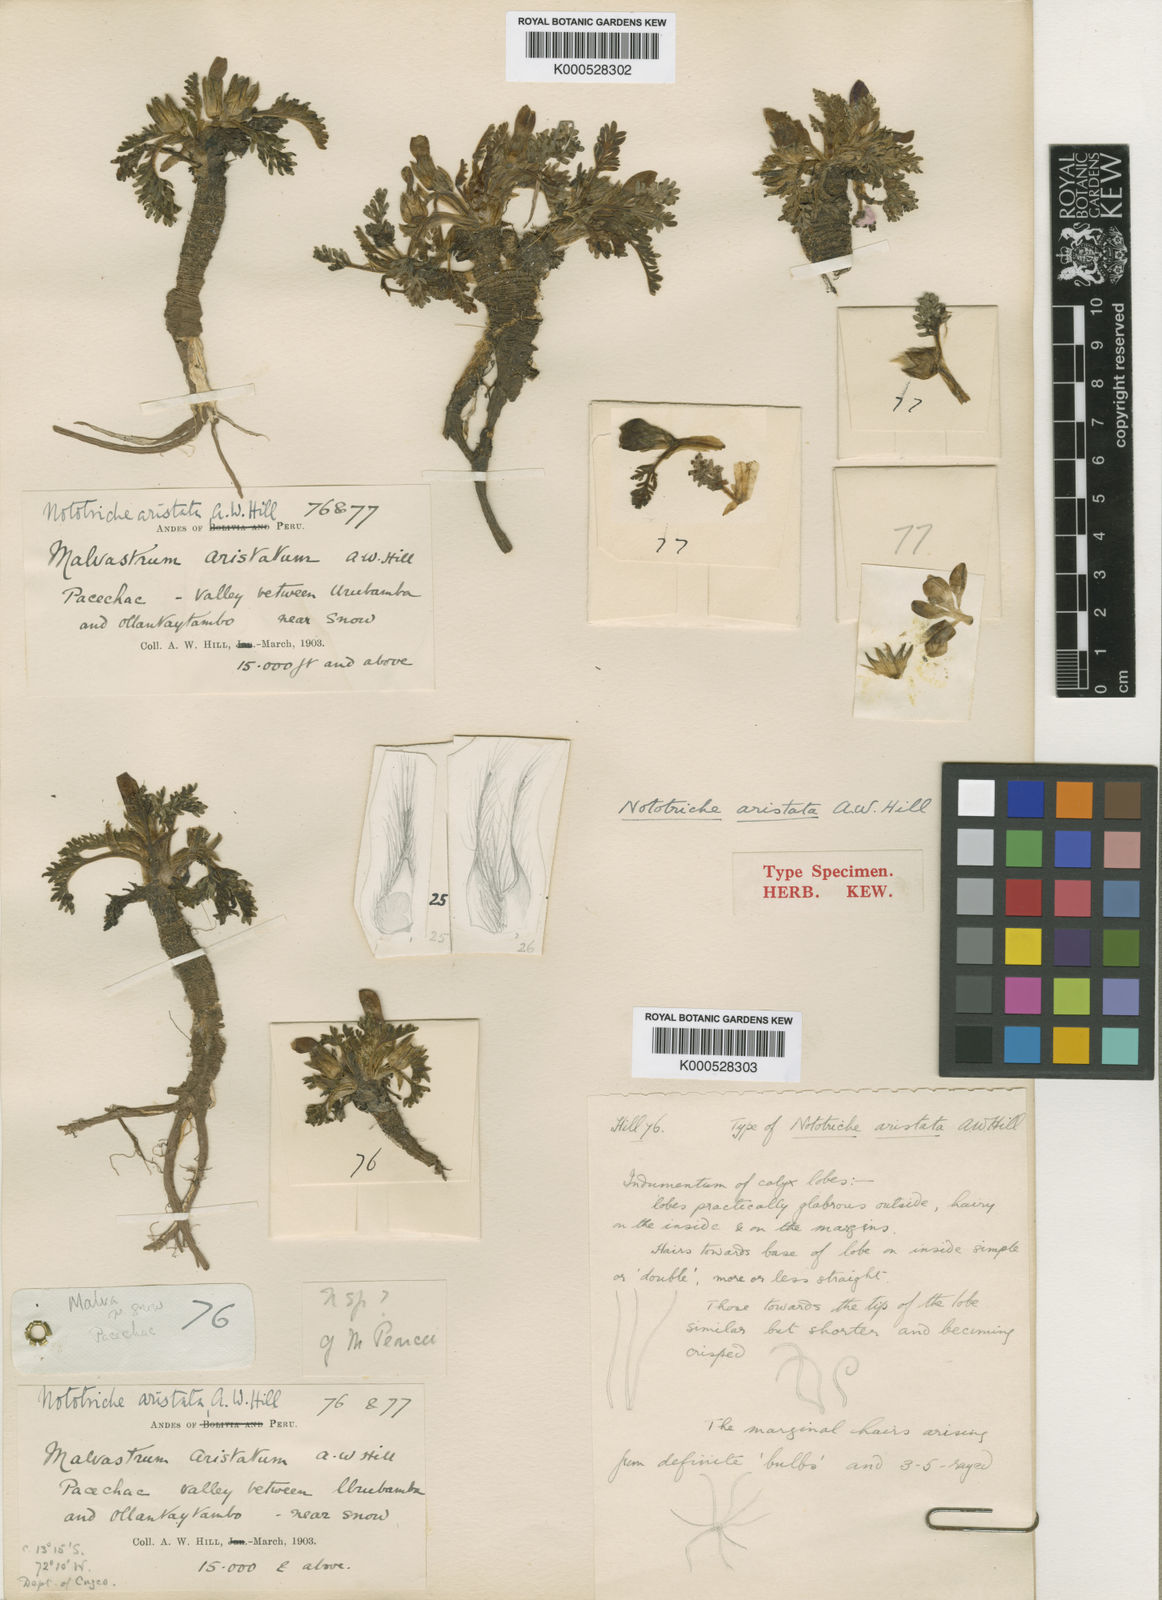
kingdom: Plantae
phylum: Tracheophyta
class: Magnoliopsida
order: Malvales
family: Malvaceae
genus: Nototriche
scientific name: Nototriche longirostris
